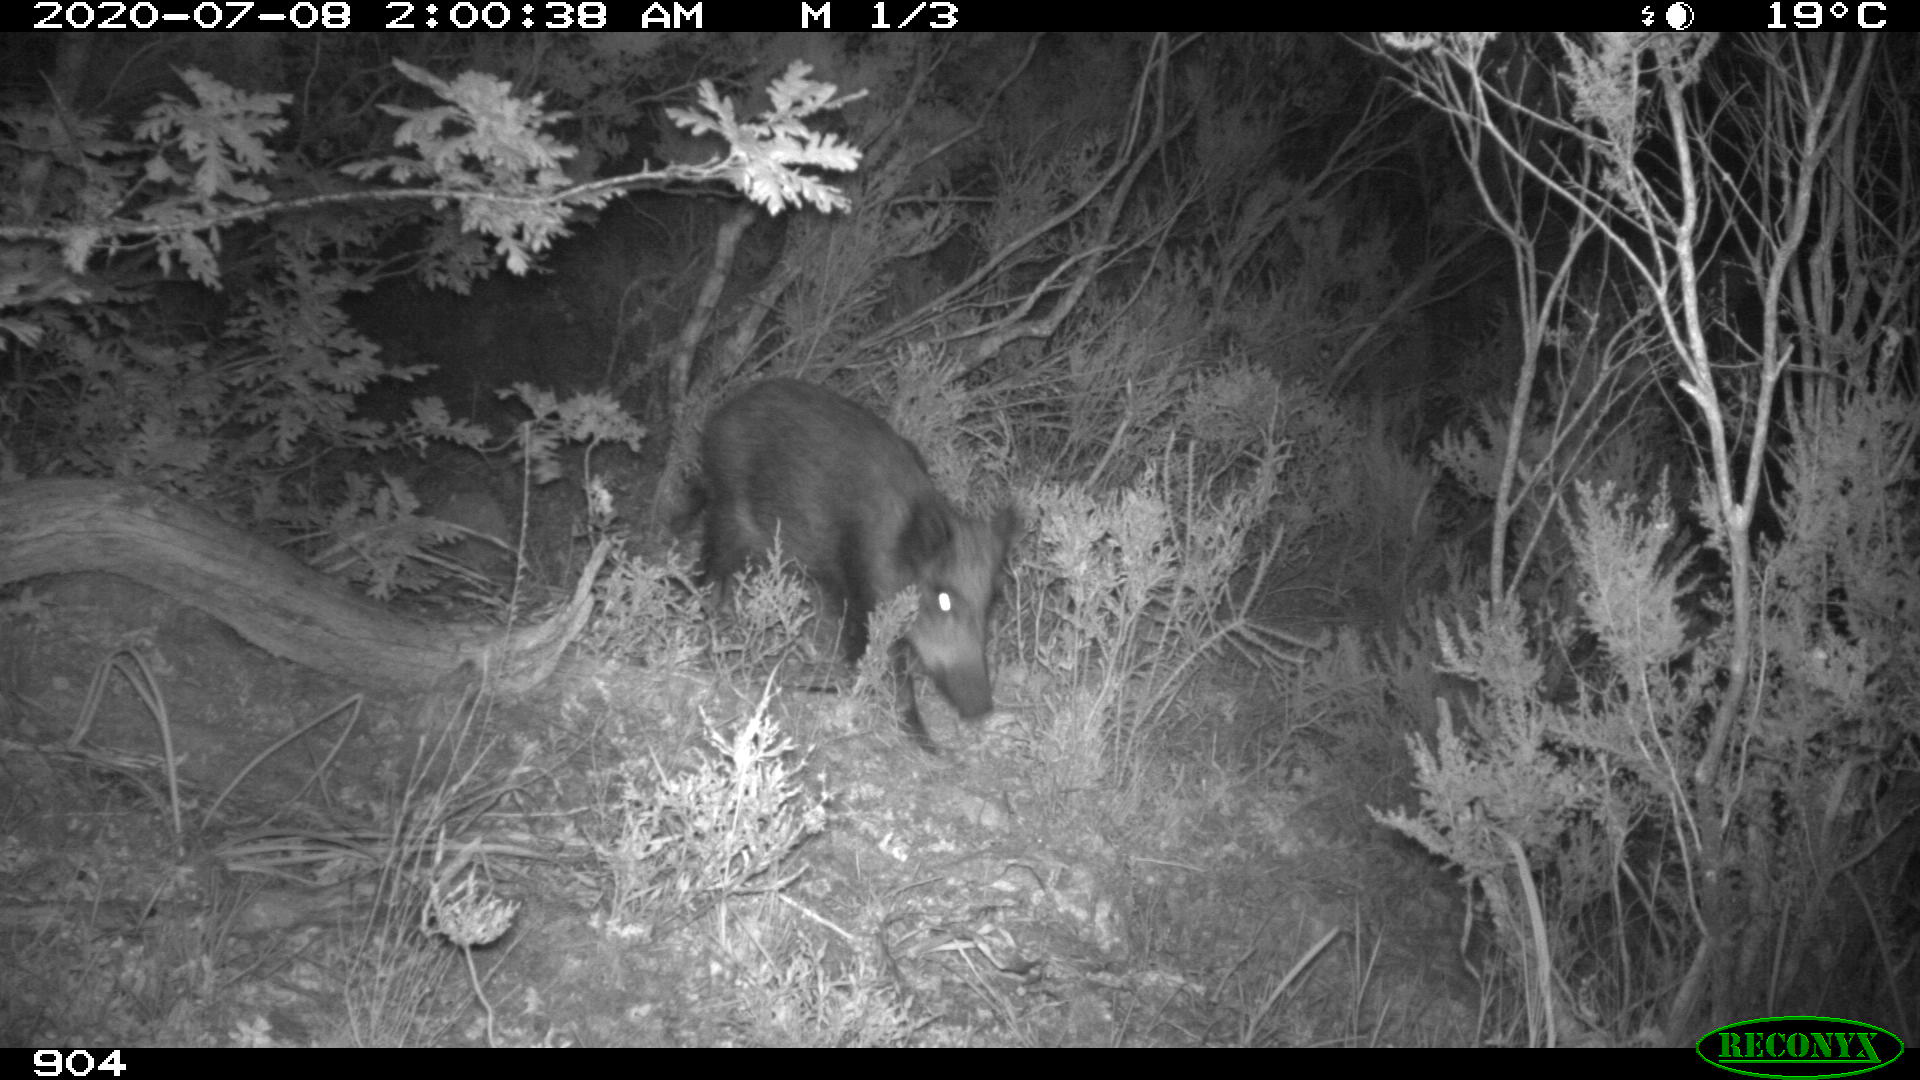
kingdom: Animalia
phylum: Chordata
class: Mammalia
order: Artiodactyla
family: Suidae
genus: Sus
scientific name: Sus scrofa
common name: Wild boar
